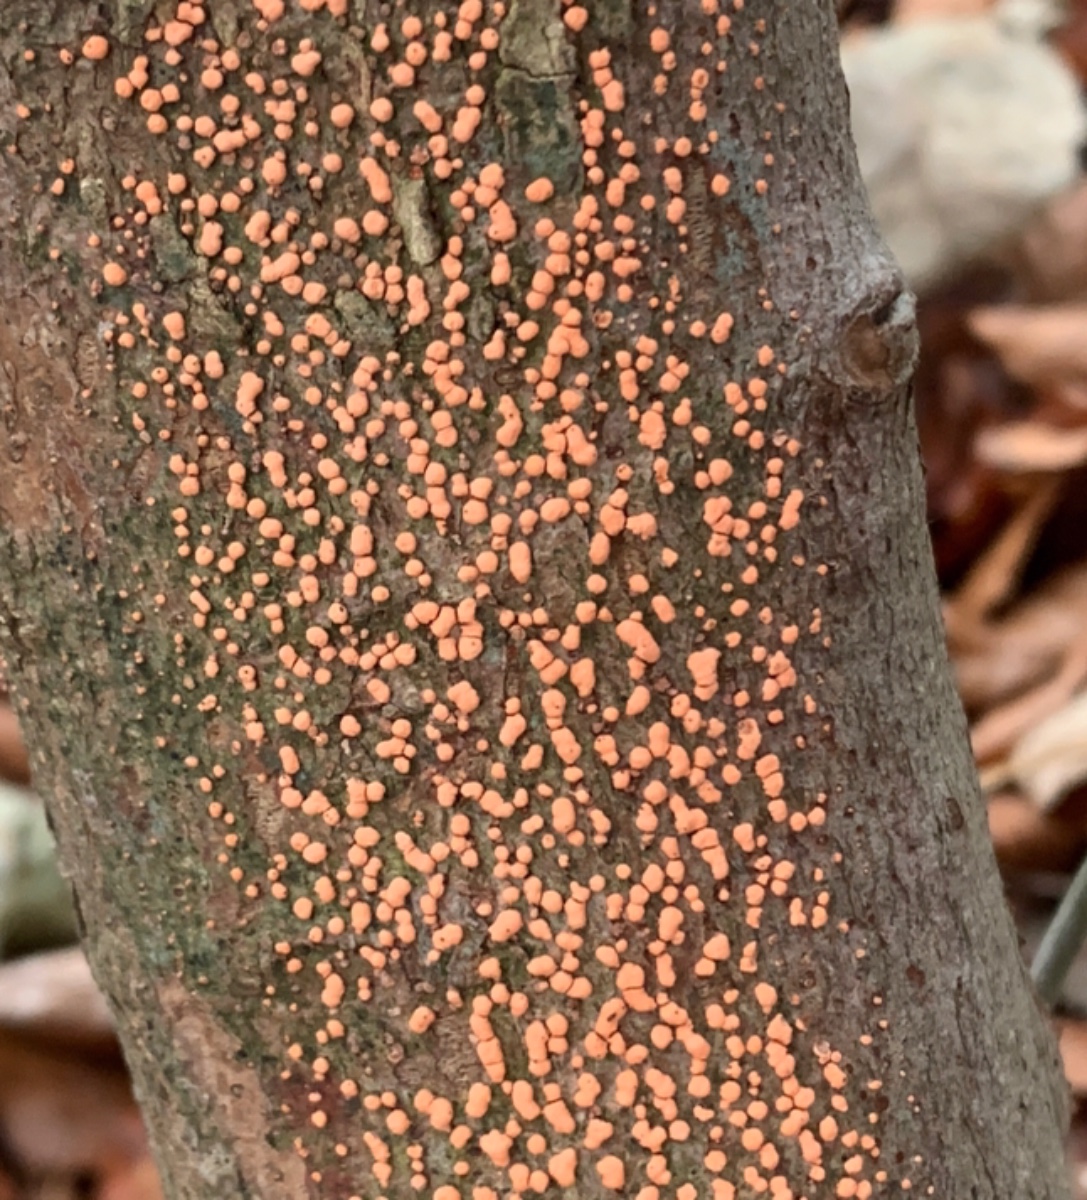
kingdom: Fungi
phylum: Ascomycota
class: Sordariomycetes
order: Hypocreales
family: Nectriaceae
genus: Nectria
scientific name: Nectria cinnabarina
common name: almindelig cinnobersvamp
